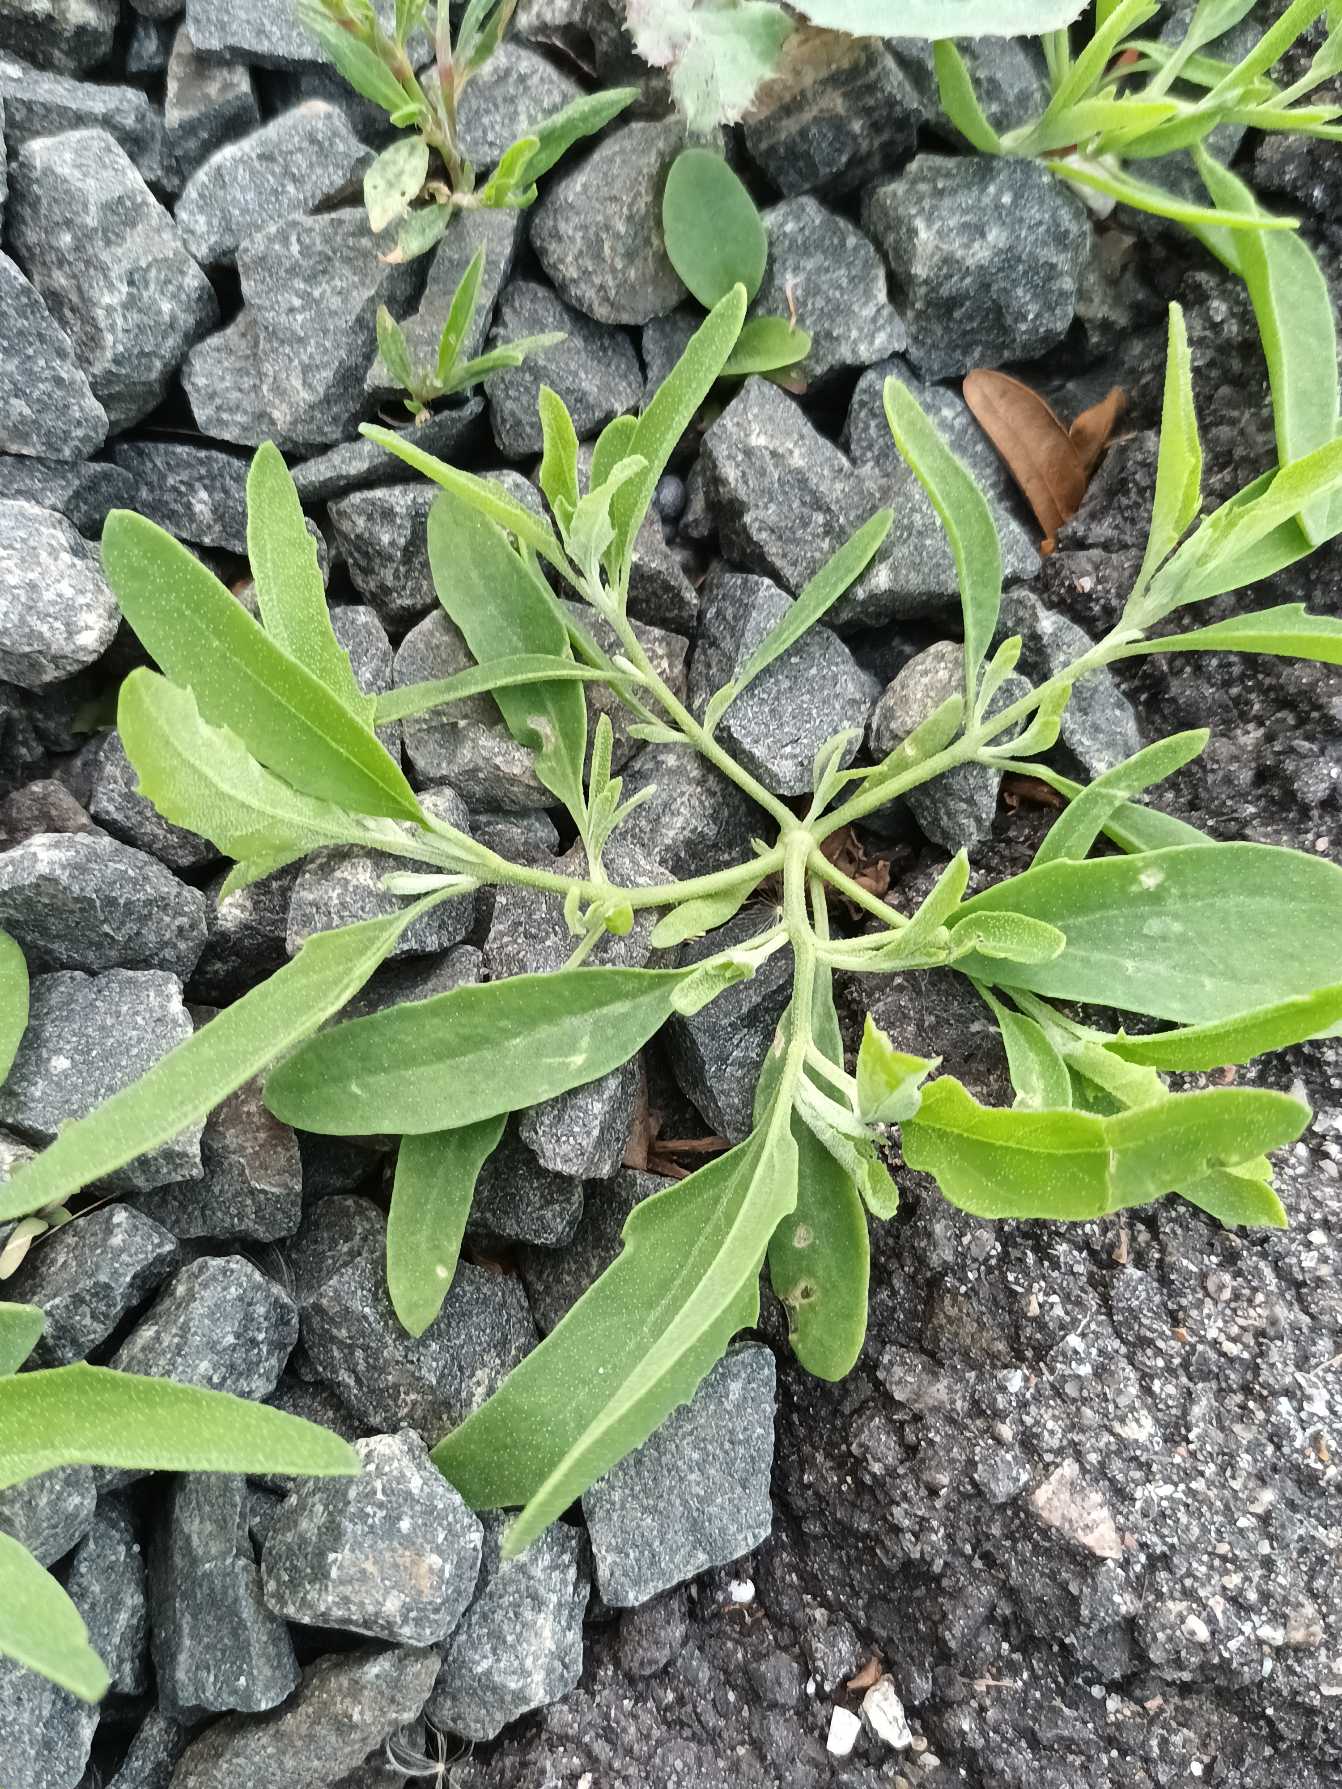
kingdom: Plantae
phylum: Tracheophyta
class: Magnoliopsida
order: Caryophyllales
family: Amaranthaceae
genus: Atriplex
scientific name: Atriplex patula
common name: Svine-mælde
